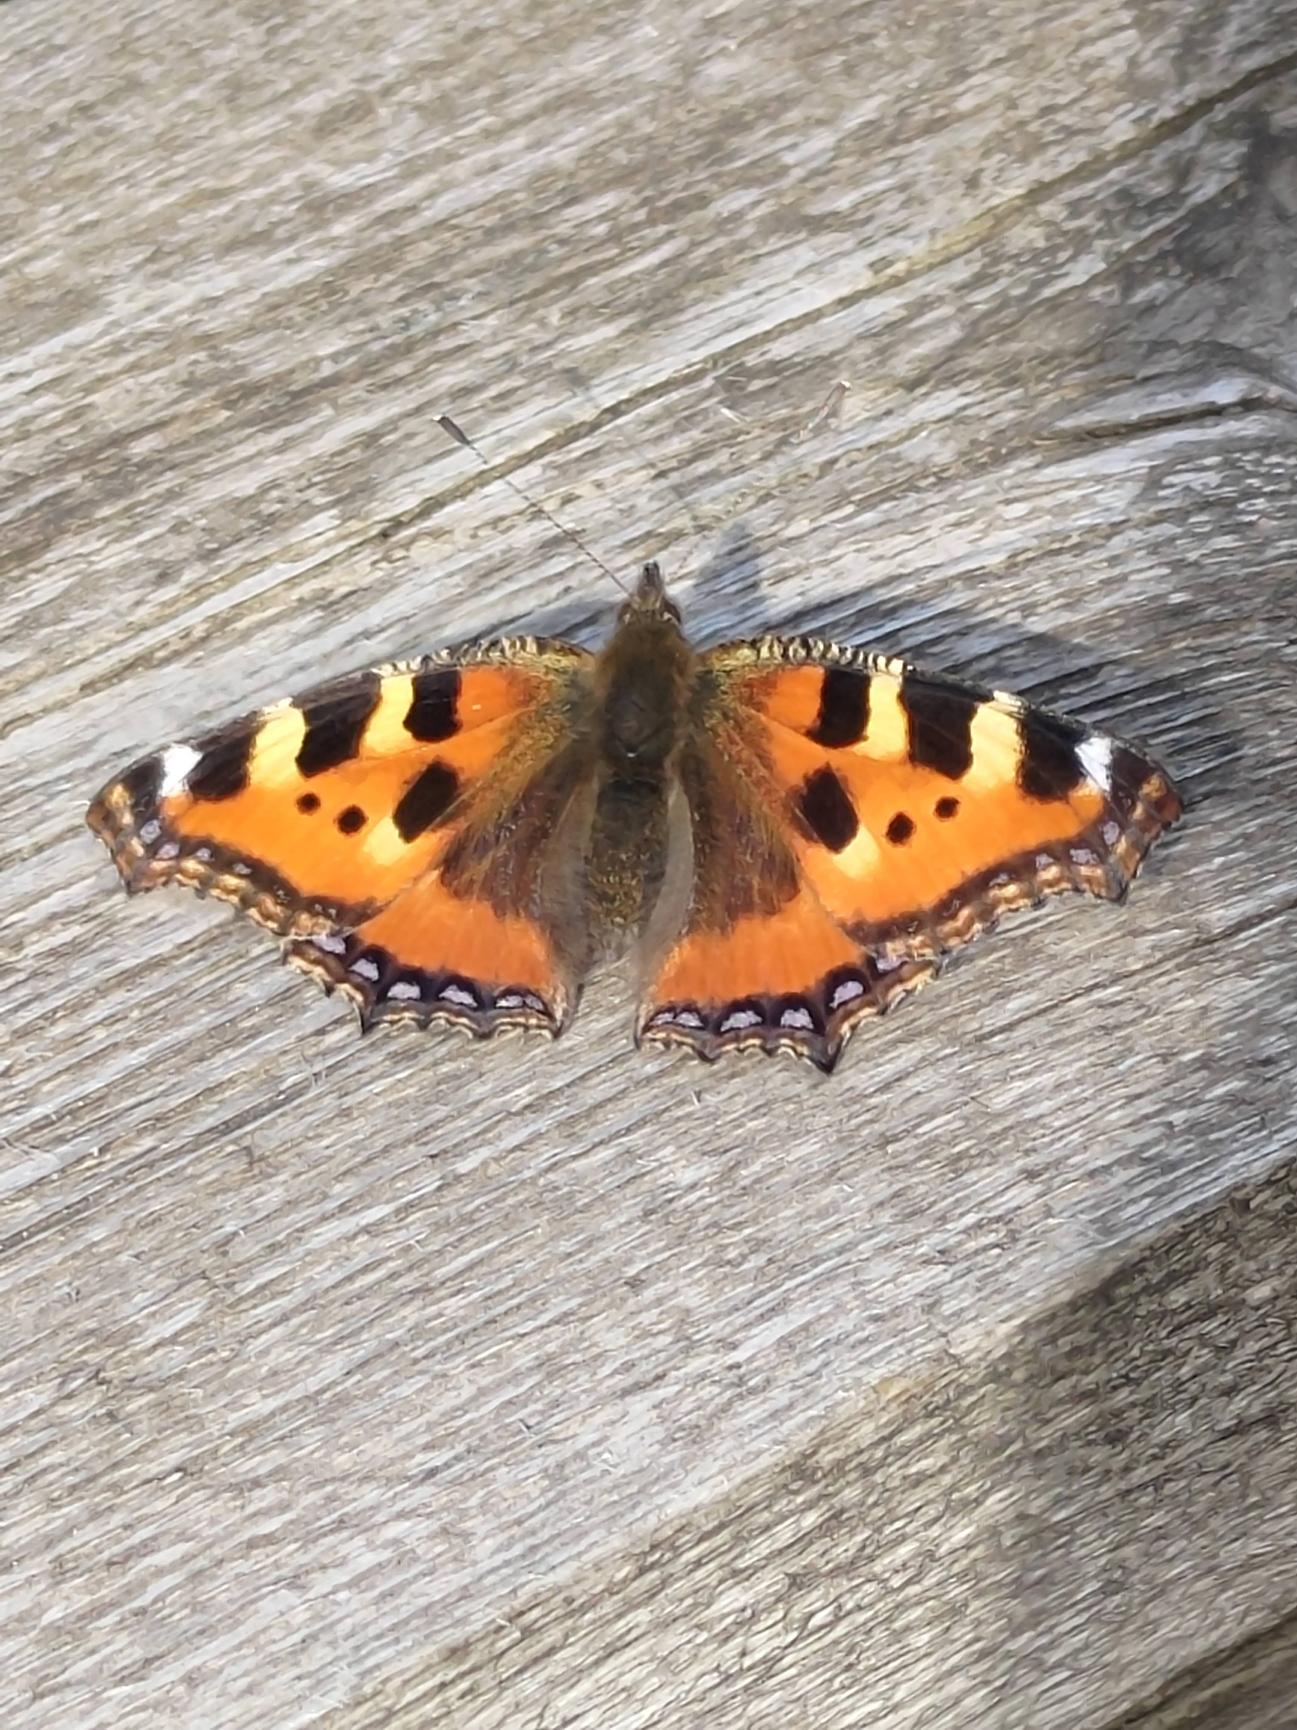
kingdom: Animalia
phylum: Arthropoda
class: Insecta
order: Lepidoptera
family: Nymphalidae
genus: Aglais
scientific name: Aglais urticae
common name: Nældens takvinge
